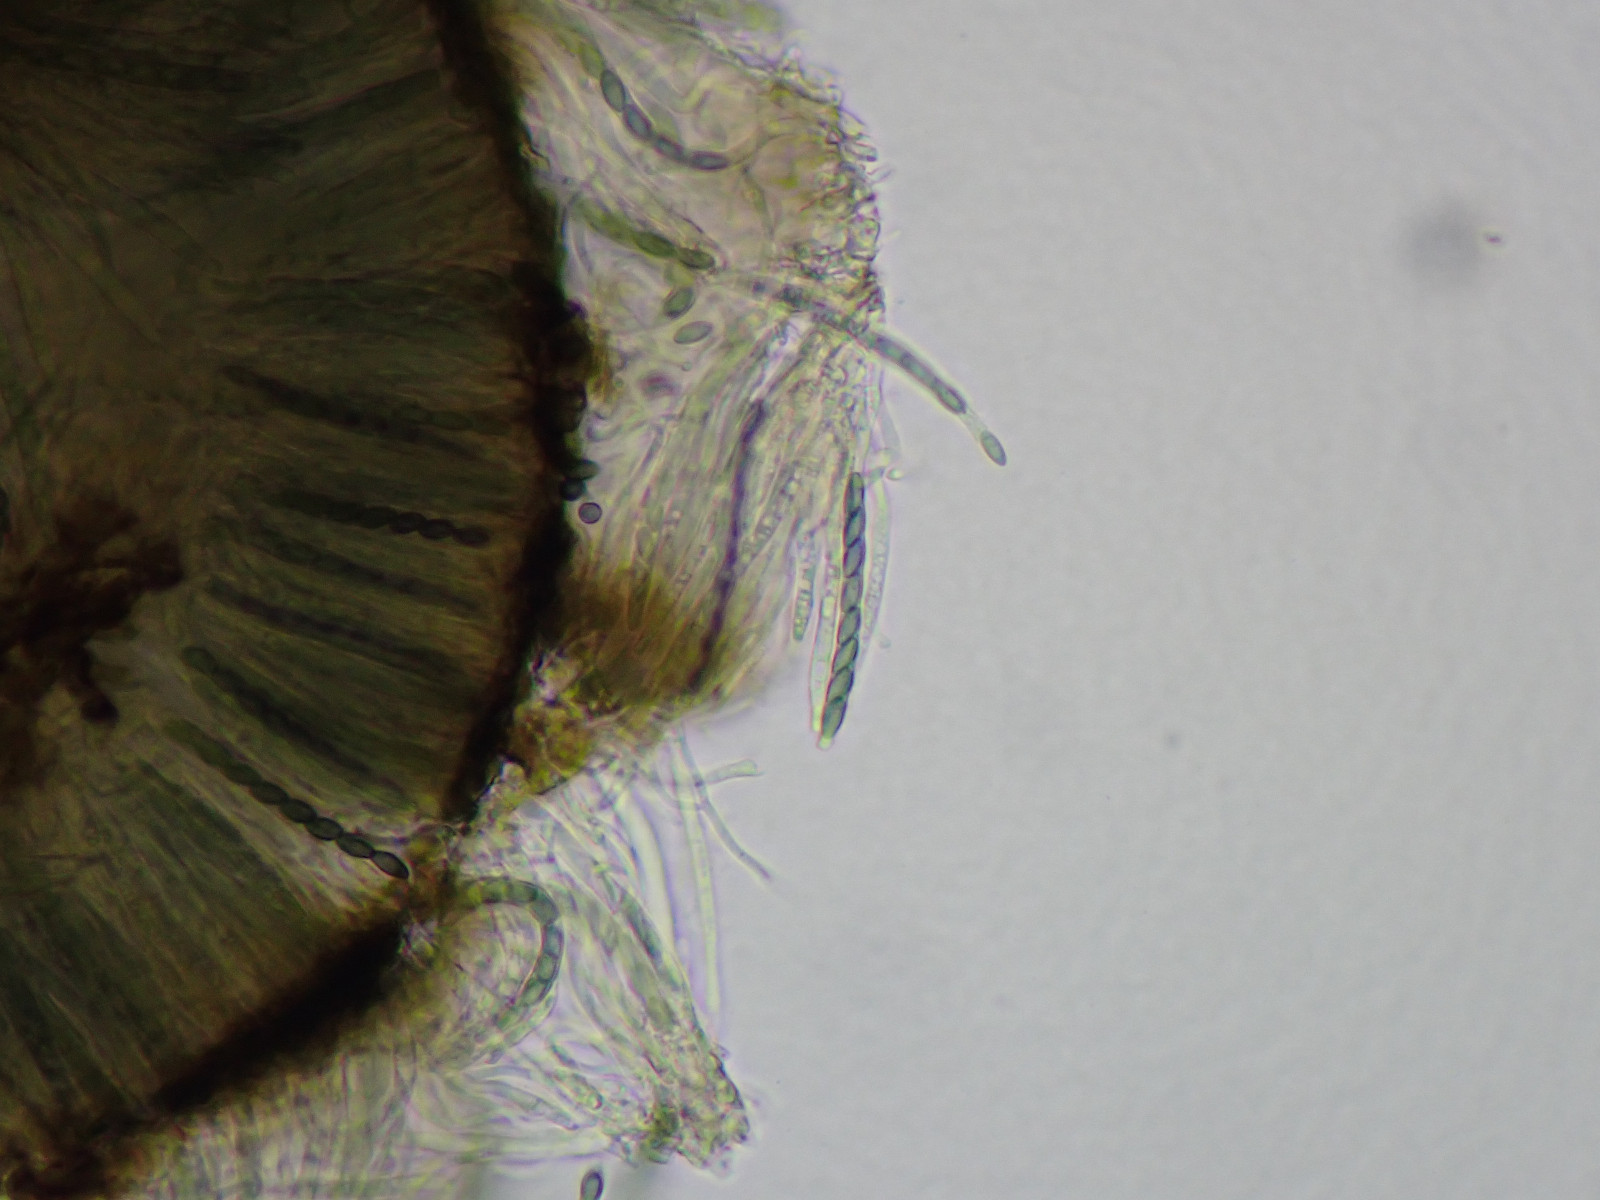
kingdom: Fungi
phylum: Ascomycota
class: Eurotiomycetes
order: Mycocaliciales
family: Mycocaliciaceae
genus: Mycocalicium
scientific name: Mycocalicium subtile
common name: ved-nålesvamp
